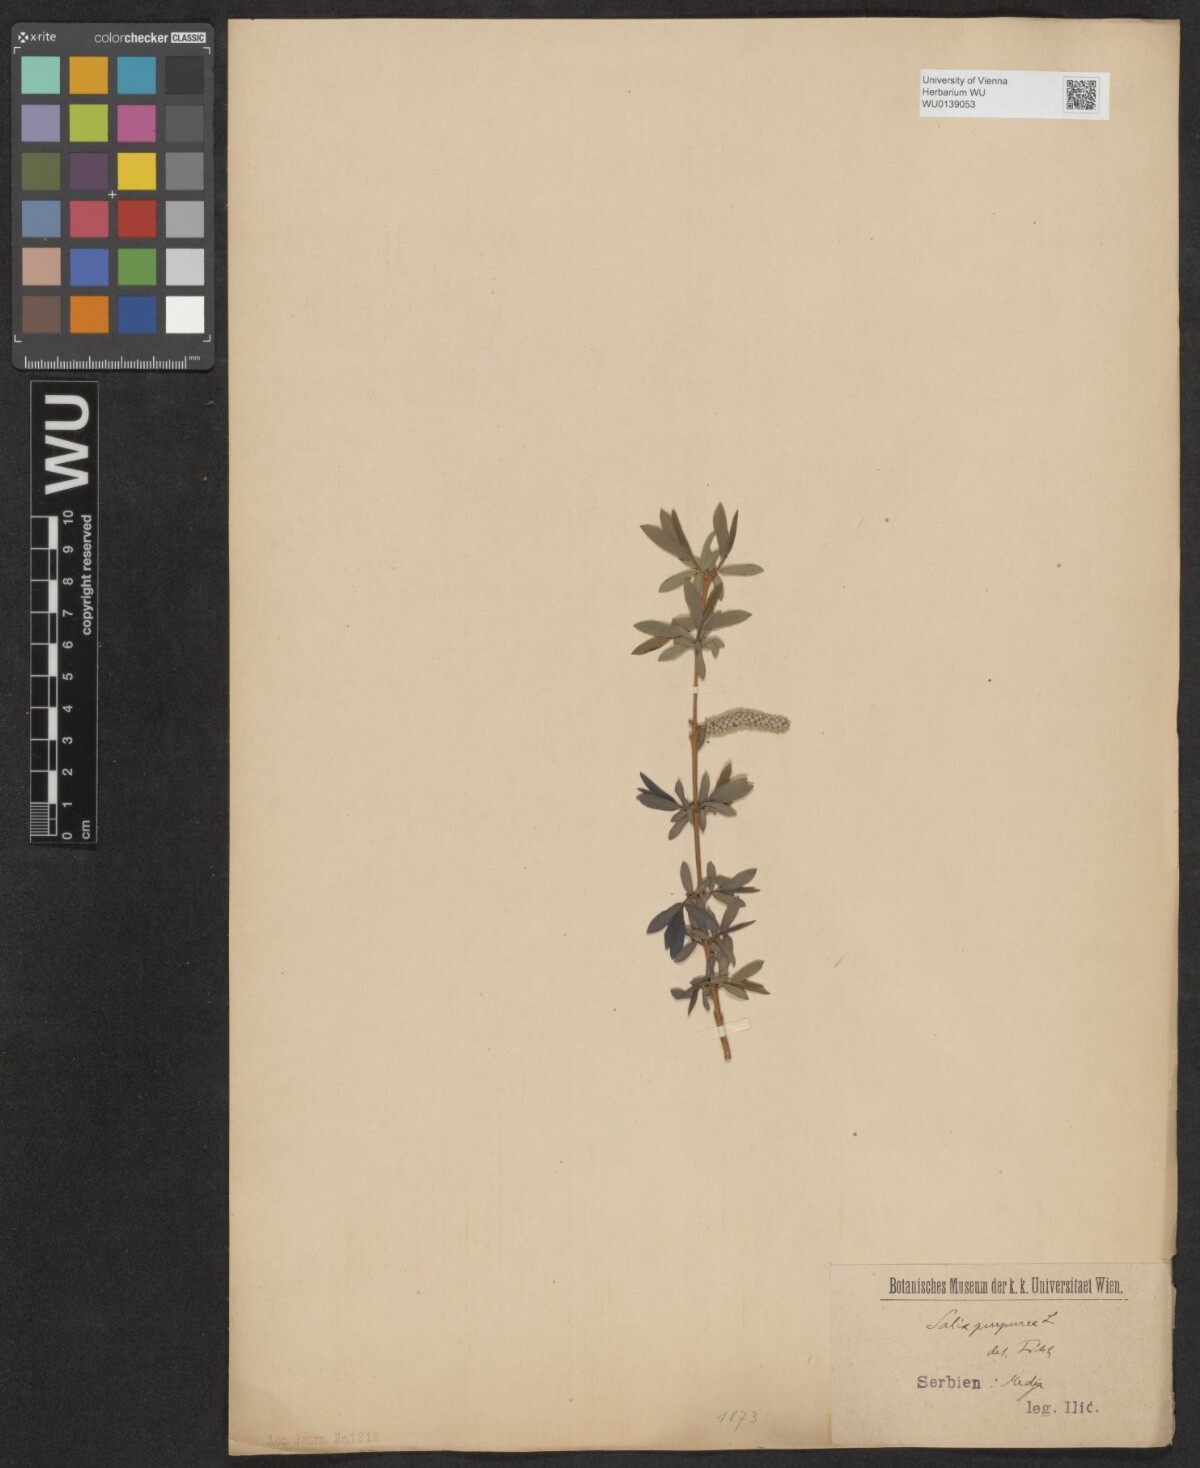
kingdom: Plantae
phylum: Tracheophyta
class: Magnoliopsida
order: Malpighiales
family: Salicaceae
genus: Salix
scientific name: Salix purpurea
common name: Purple willow
